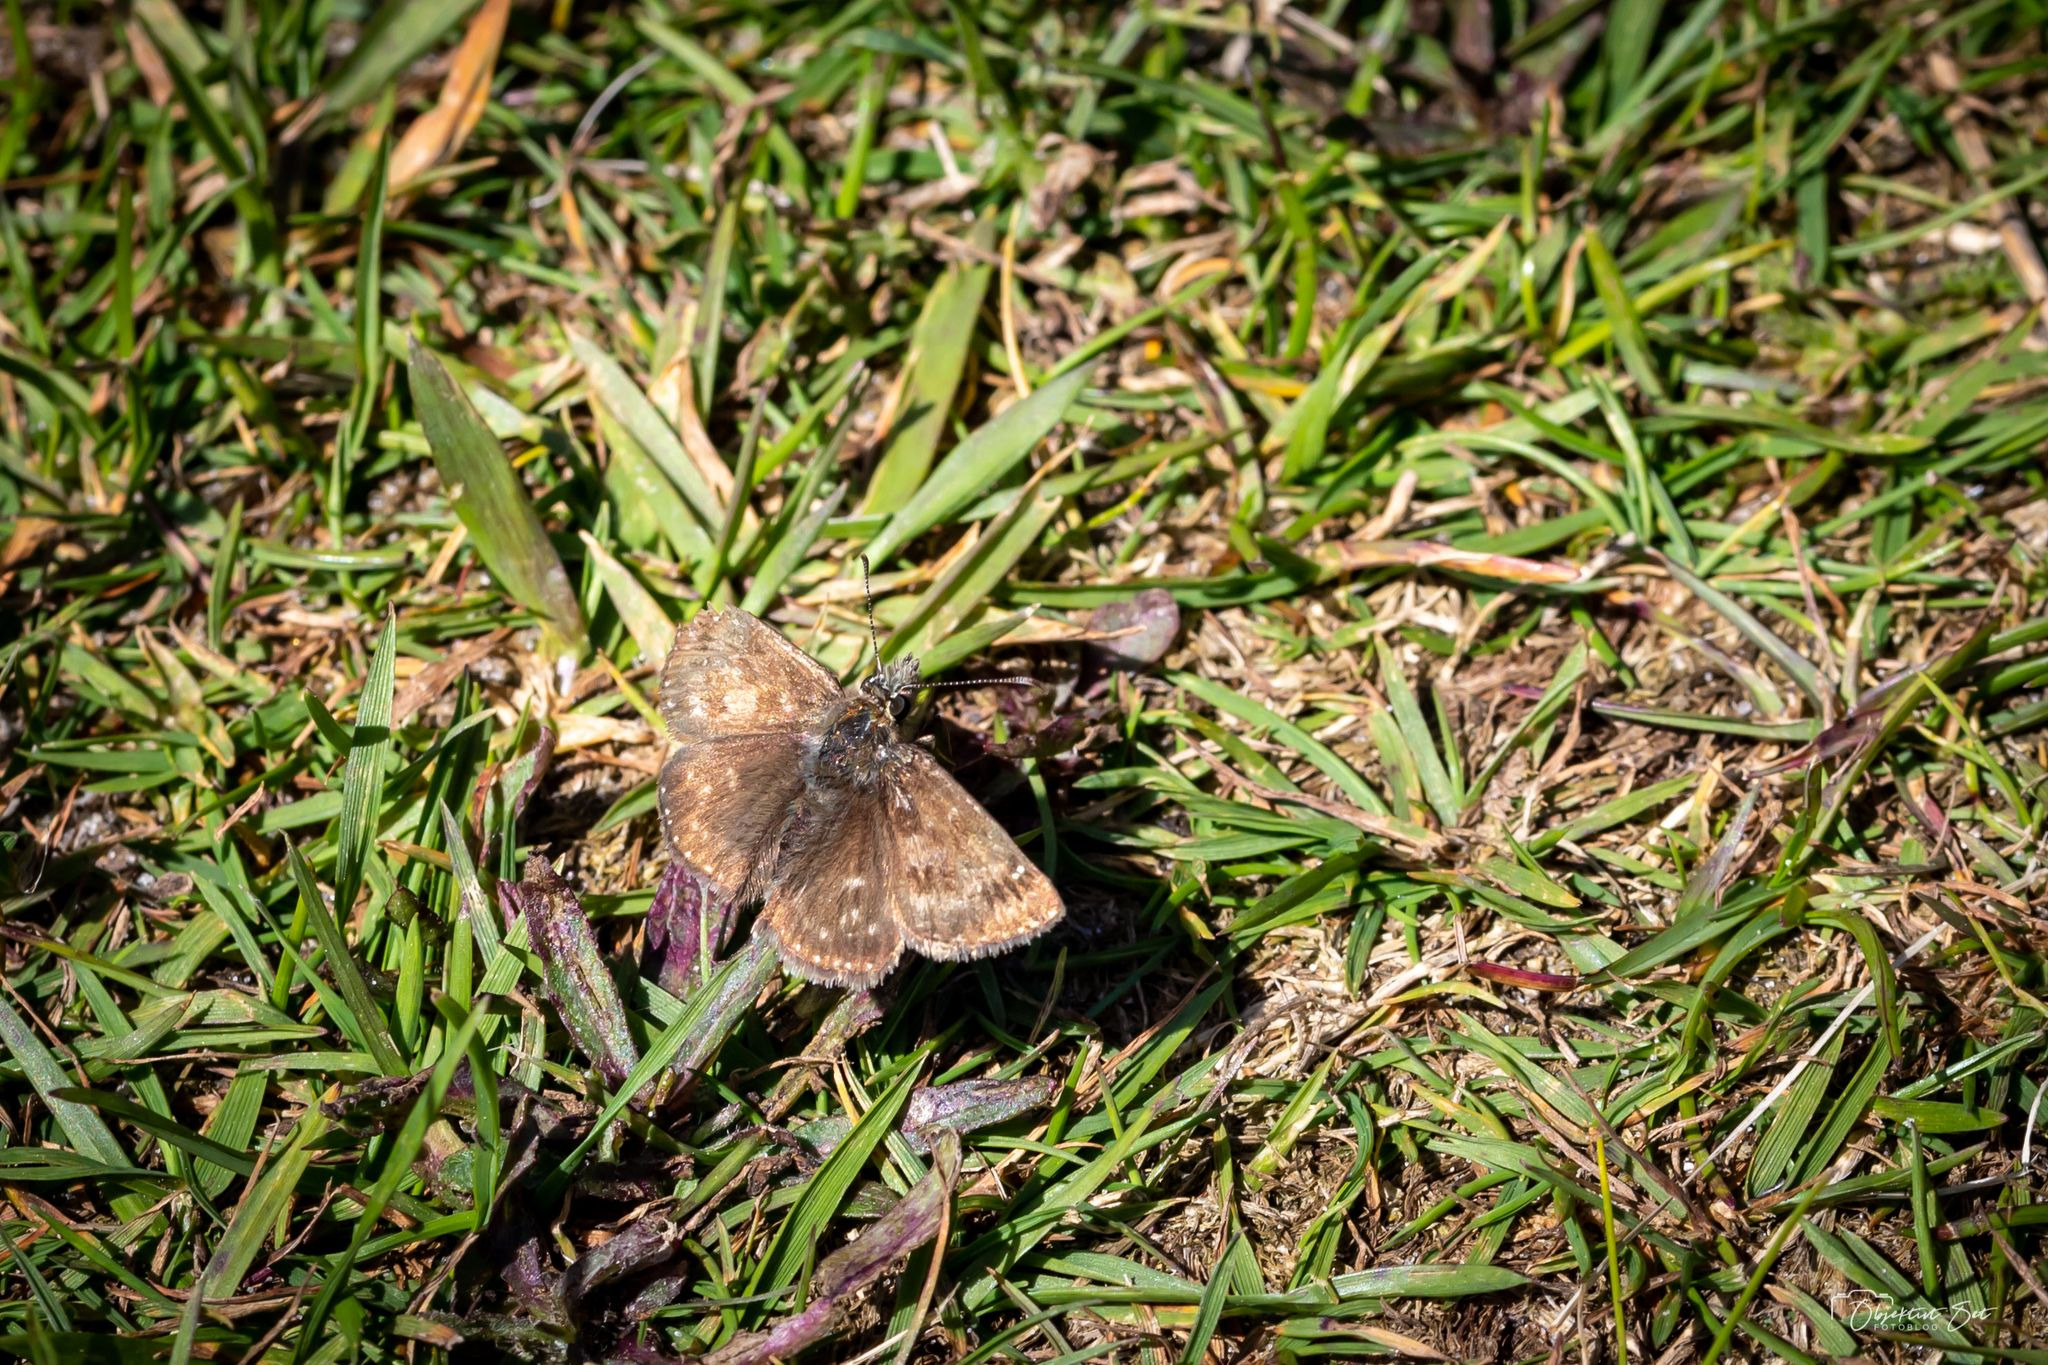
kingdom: Animalia
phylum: Arthropoda
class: Insecta
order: Lepidoptera
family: Hesperiidae
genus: Erynnis
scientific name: Erynnis tages
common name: Gråbåndet bredpande
